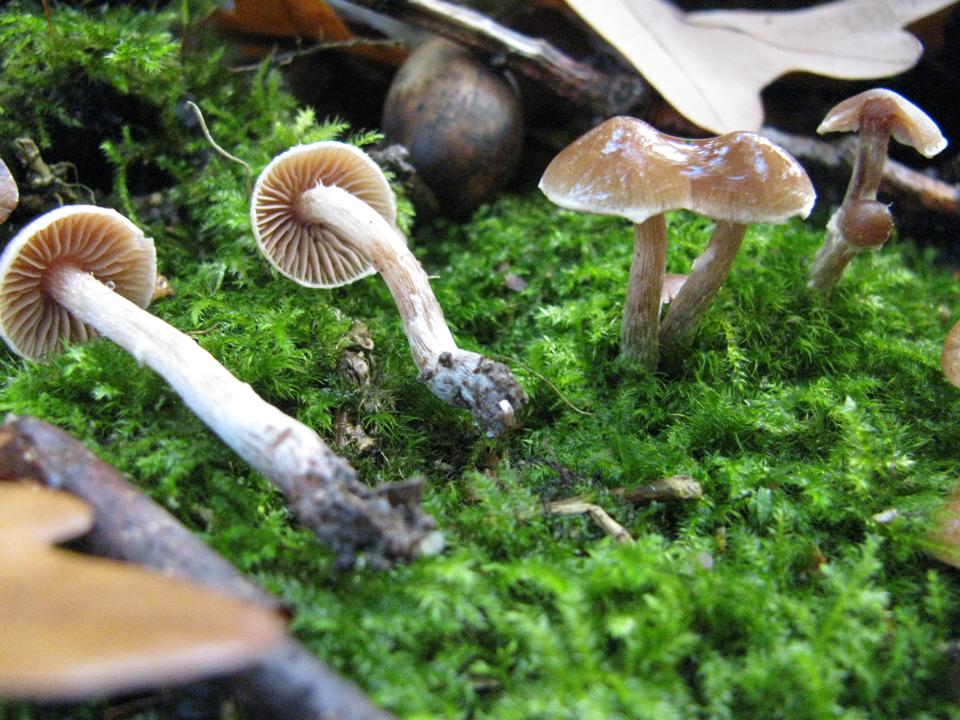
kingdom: Fungi
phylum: Basidiomycota
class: Agaricomycetes
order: Agaricales
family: Cortinariaceae
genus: Cortinarius
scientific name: Cortinarius
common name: pelargonie-slørhat
